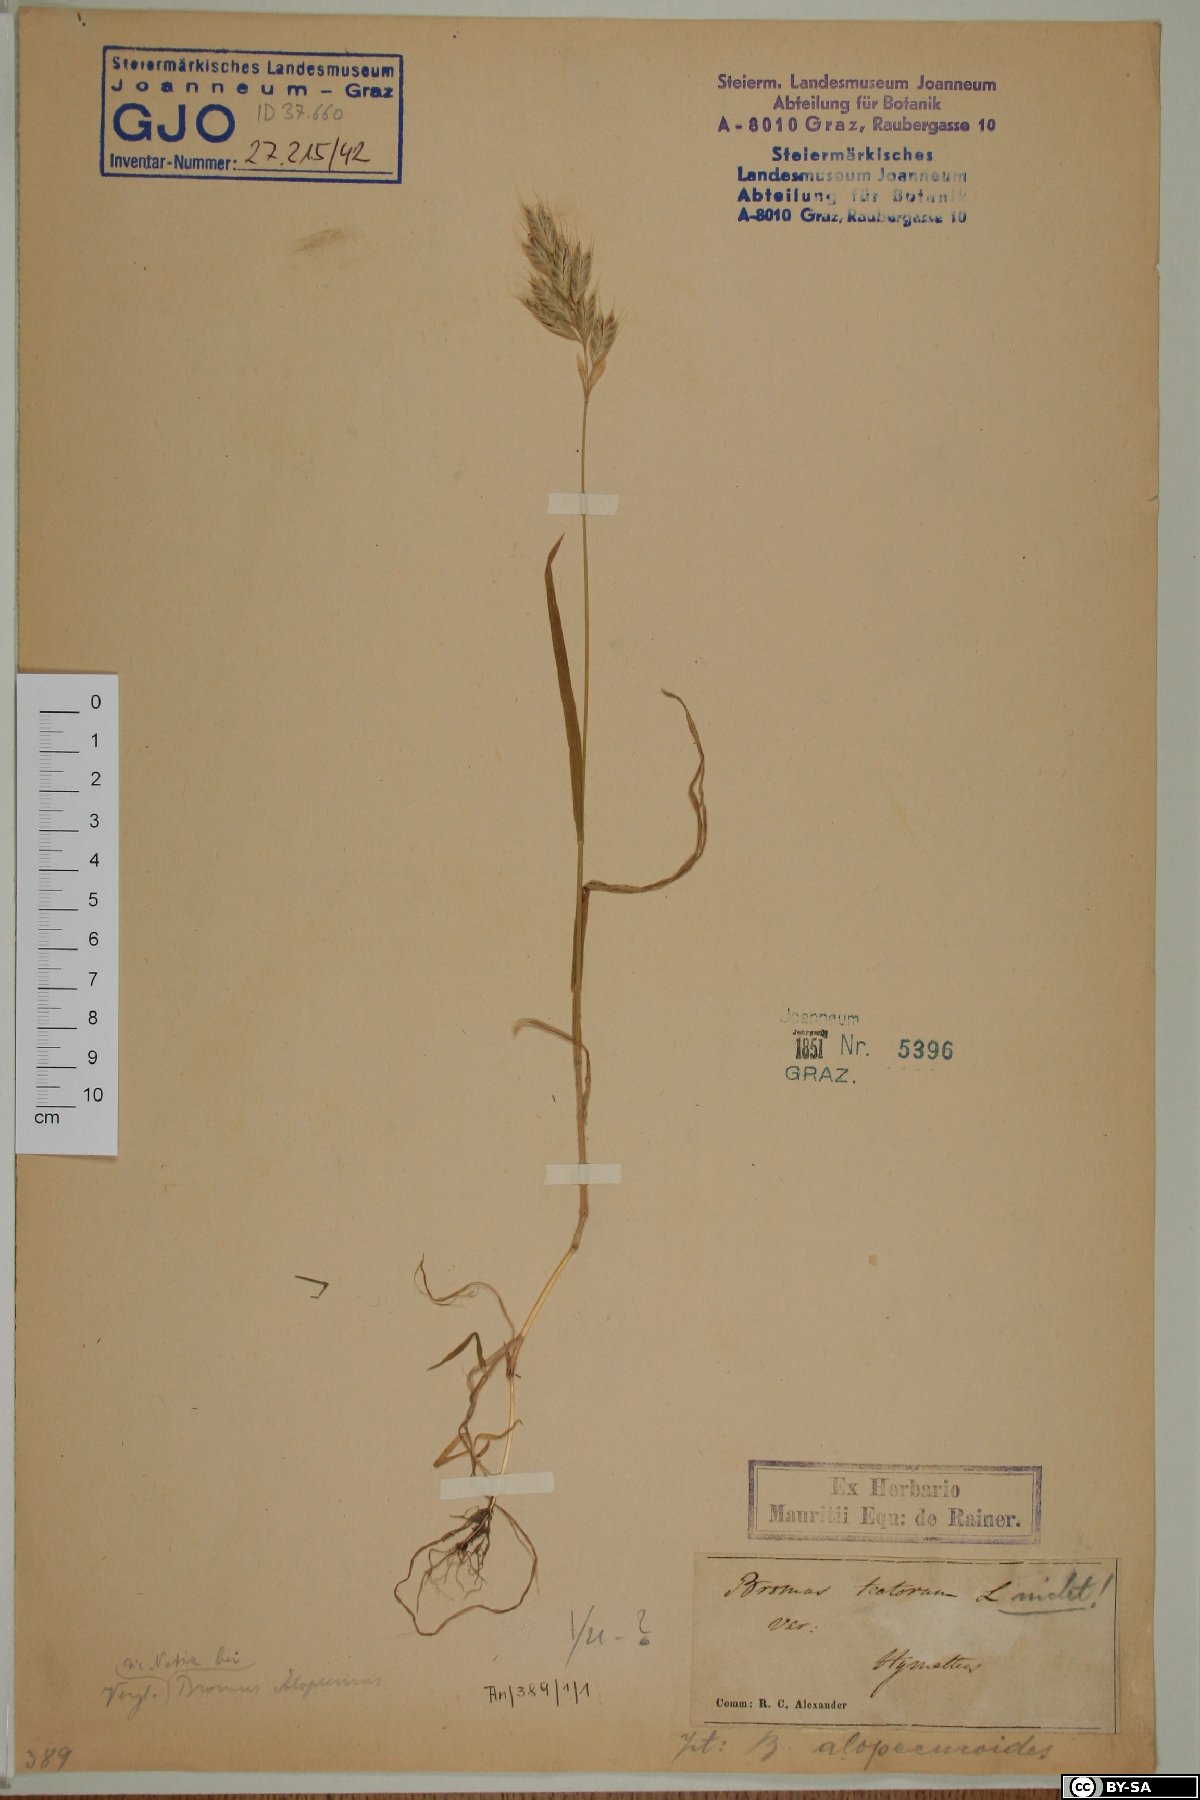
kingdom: Plantae
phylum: Tracheophyta
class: Liliopsida
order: Poales
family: Poaceae
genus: Bromus
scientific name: Bromus tectorum
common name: Cheatgrass
